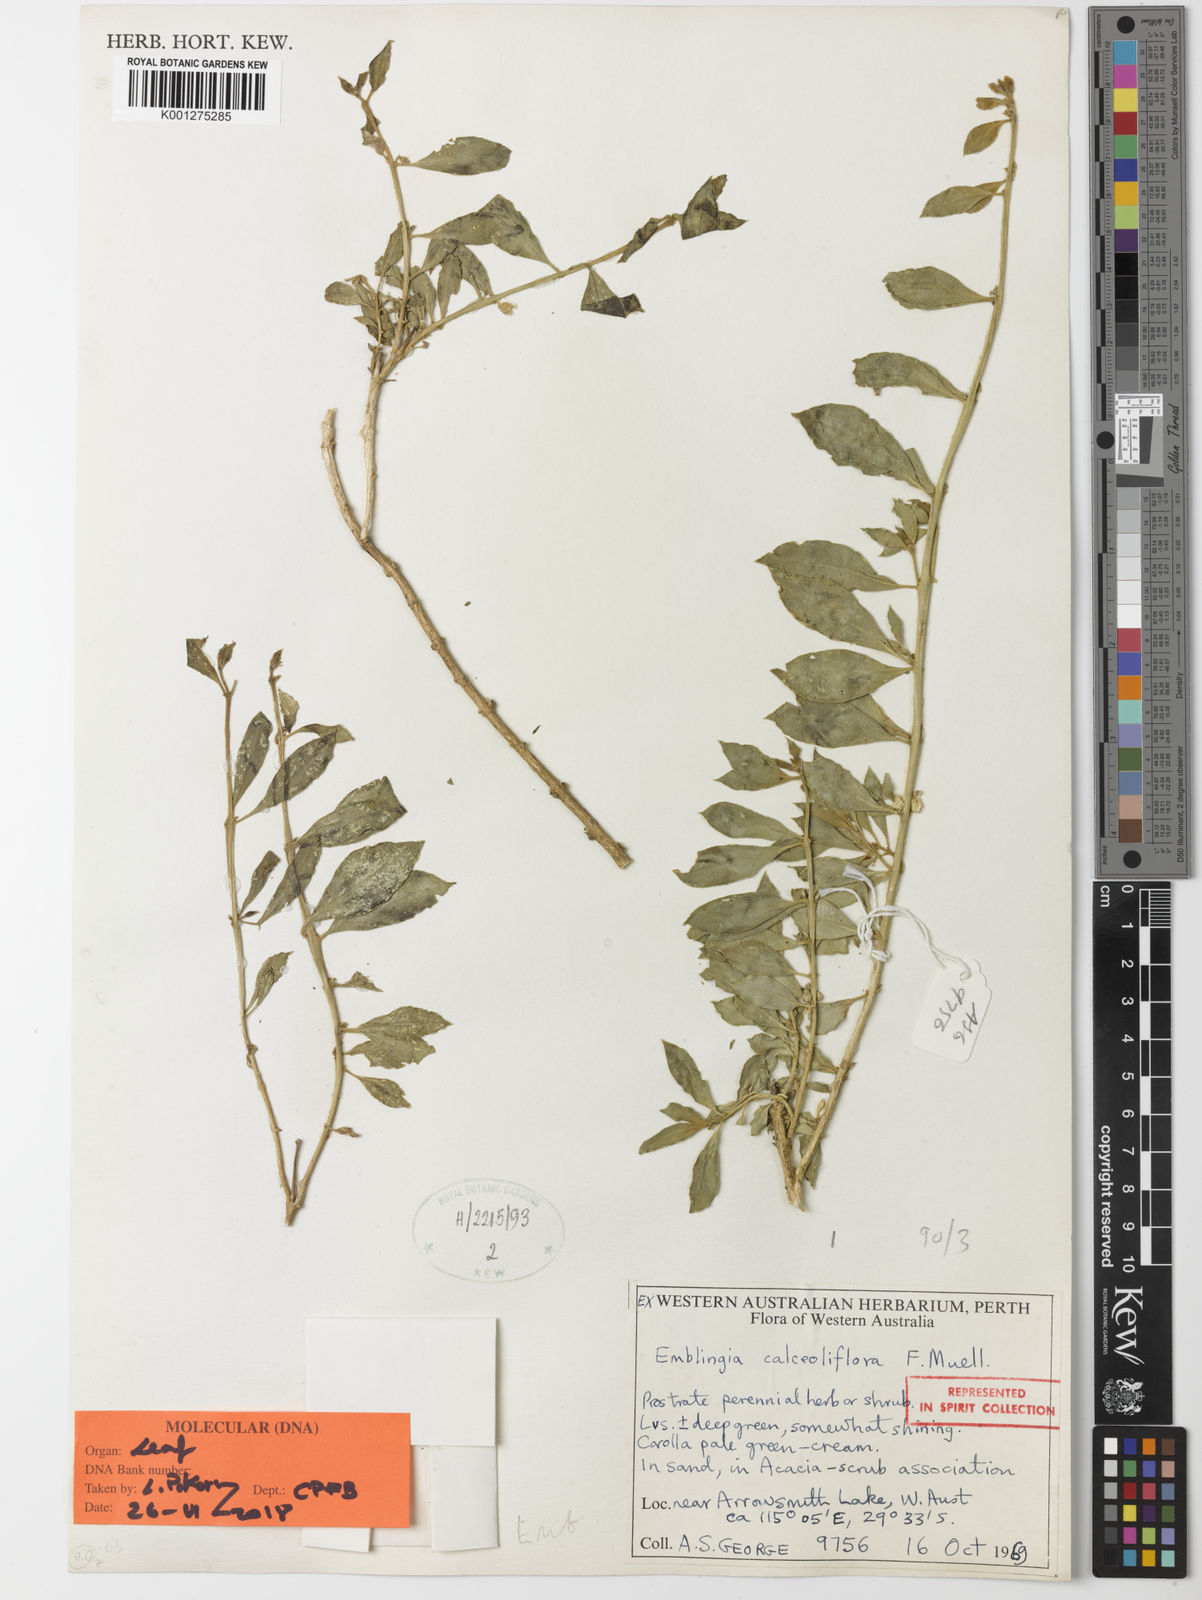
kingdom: Plantae
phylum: Tracheophyta
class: Magnoliopsida
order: Brassicales
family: Emblingiaceae
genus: Emblingia
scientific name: Emblingia calceoliflora
